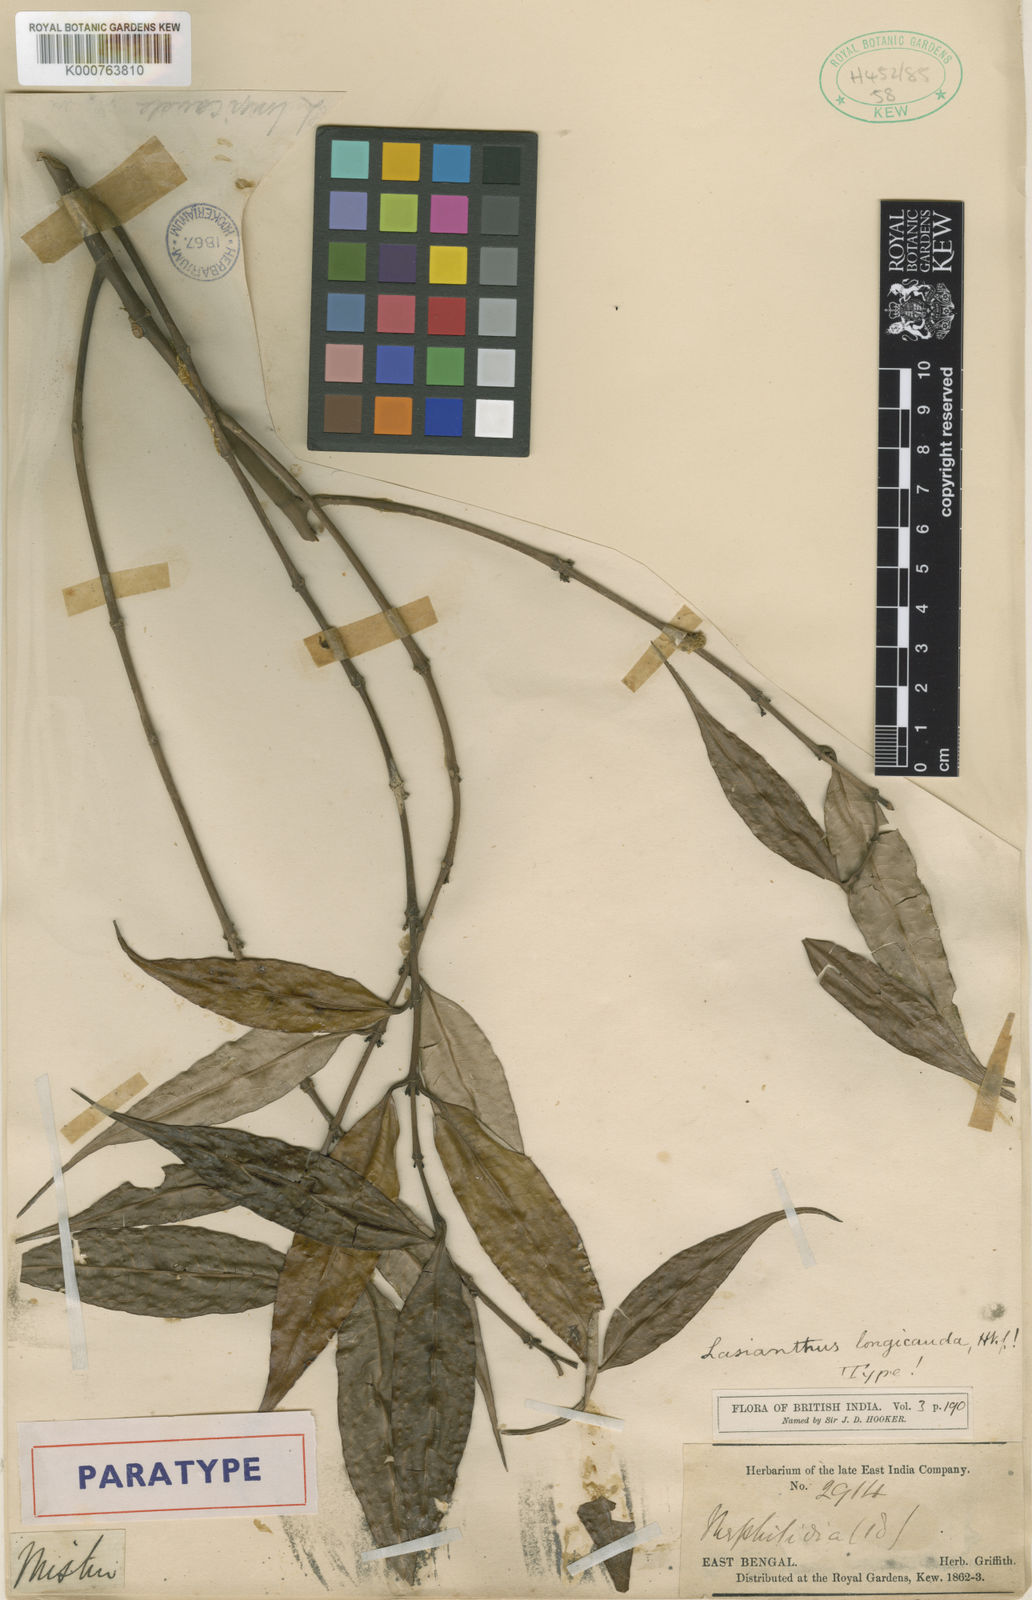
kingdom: Plantae
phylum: Tracheophyta
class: Magnoliopsida
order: Gentianales
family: Rubiaceae
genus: Lasianthus
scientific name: Lasianthus japonicus
